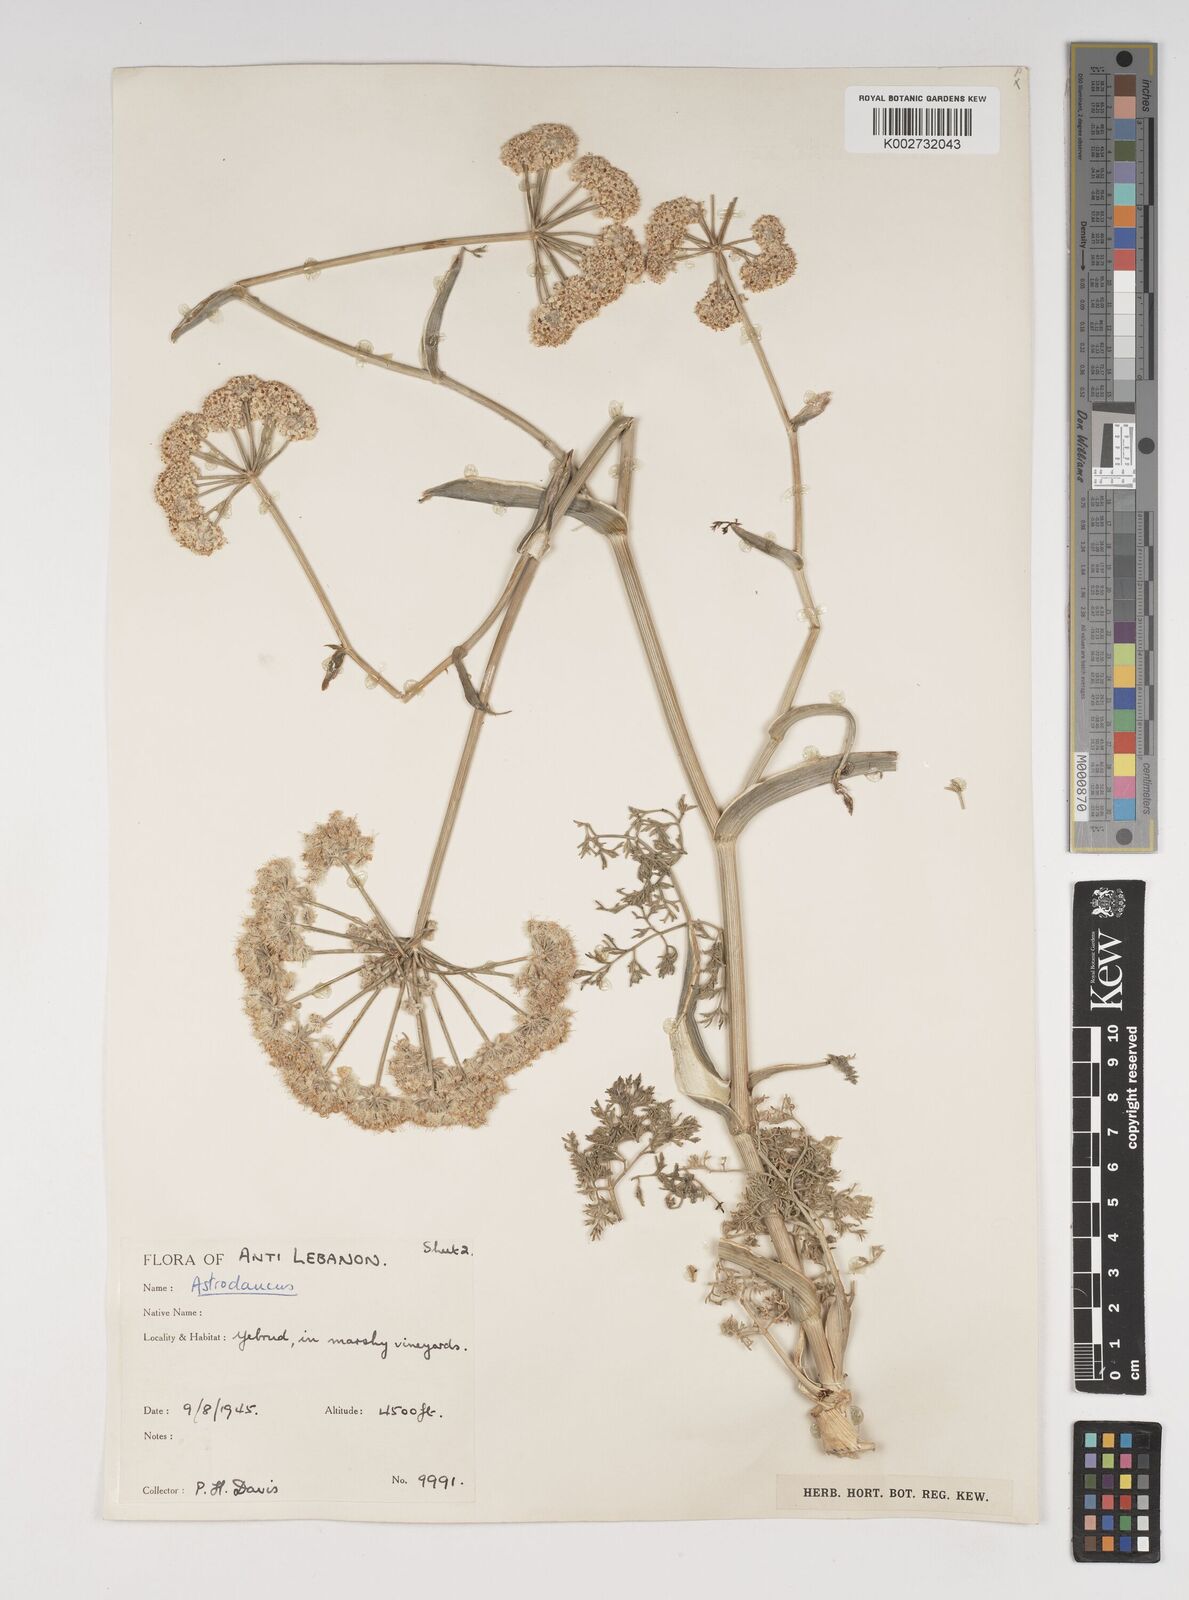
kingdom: Plantae
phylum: Tracheophyta
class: Magnoliopsida
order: Apiales
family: Apiaceae
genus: Astrodaucus
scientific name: Astrodaucus
